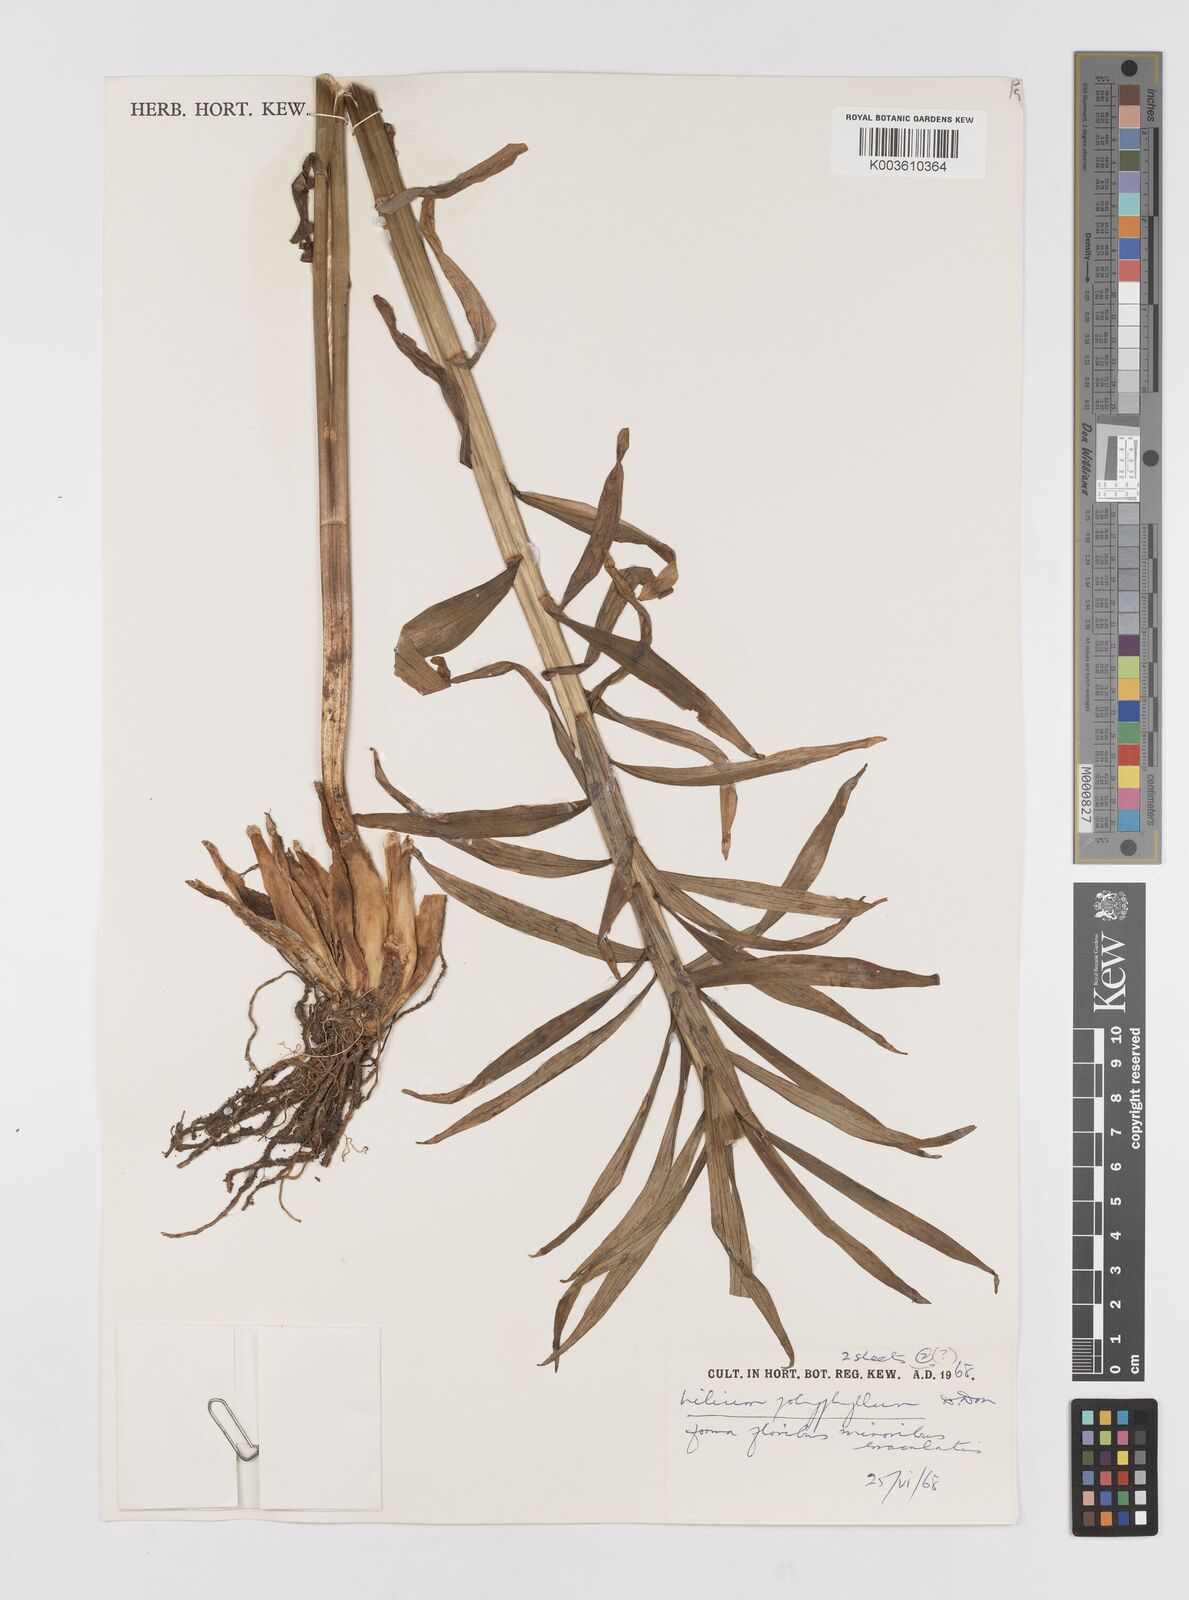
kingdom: Plantae
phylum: Tracheophyta
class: Liliopsida
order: Liliales
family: Liliaceae
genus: Lilium
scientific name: Lilium polyphyllum
